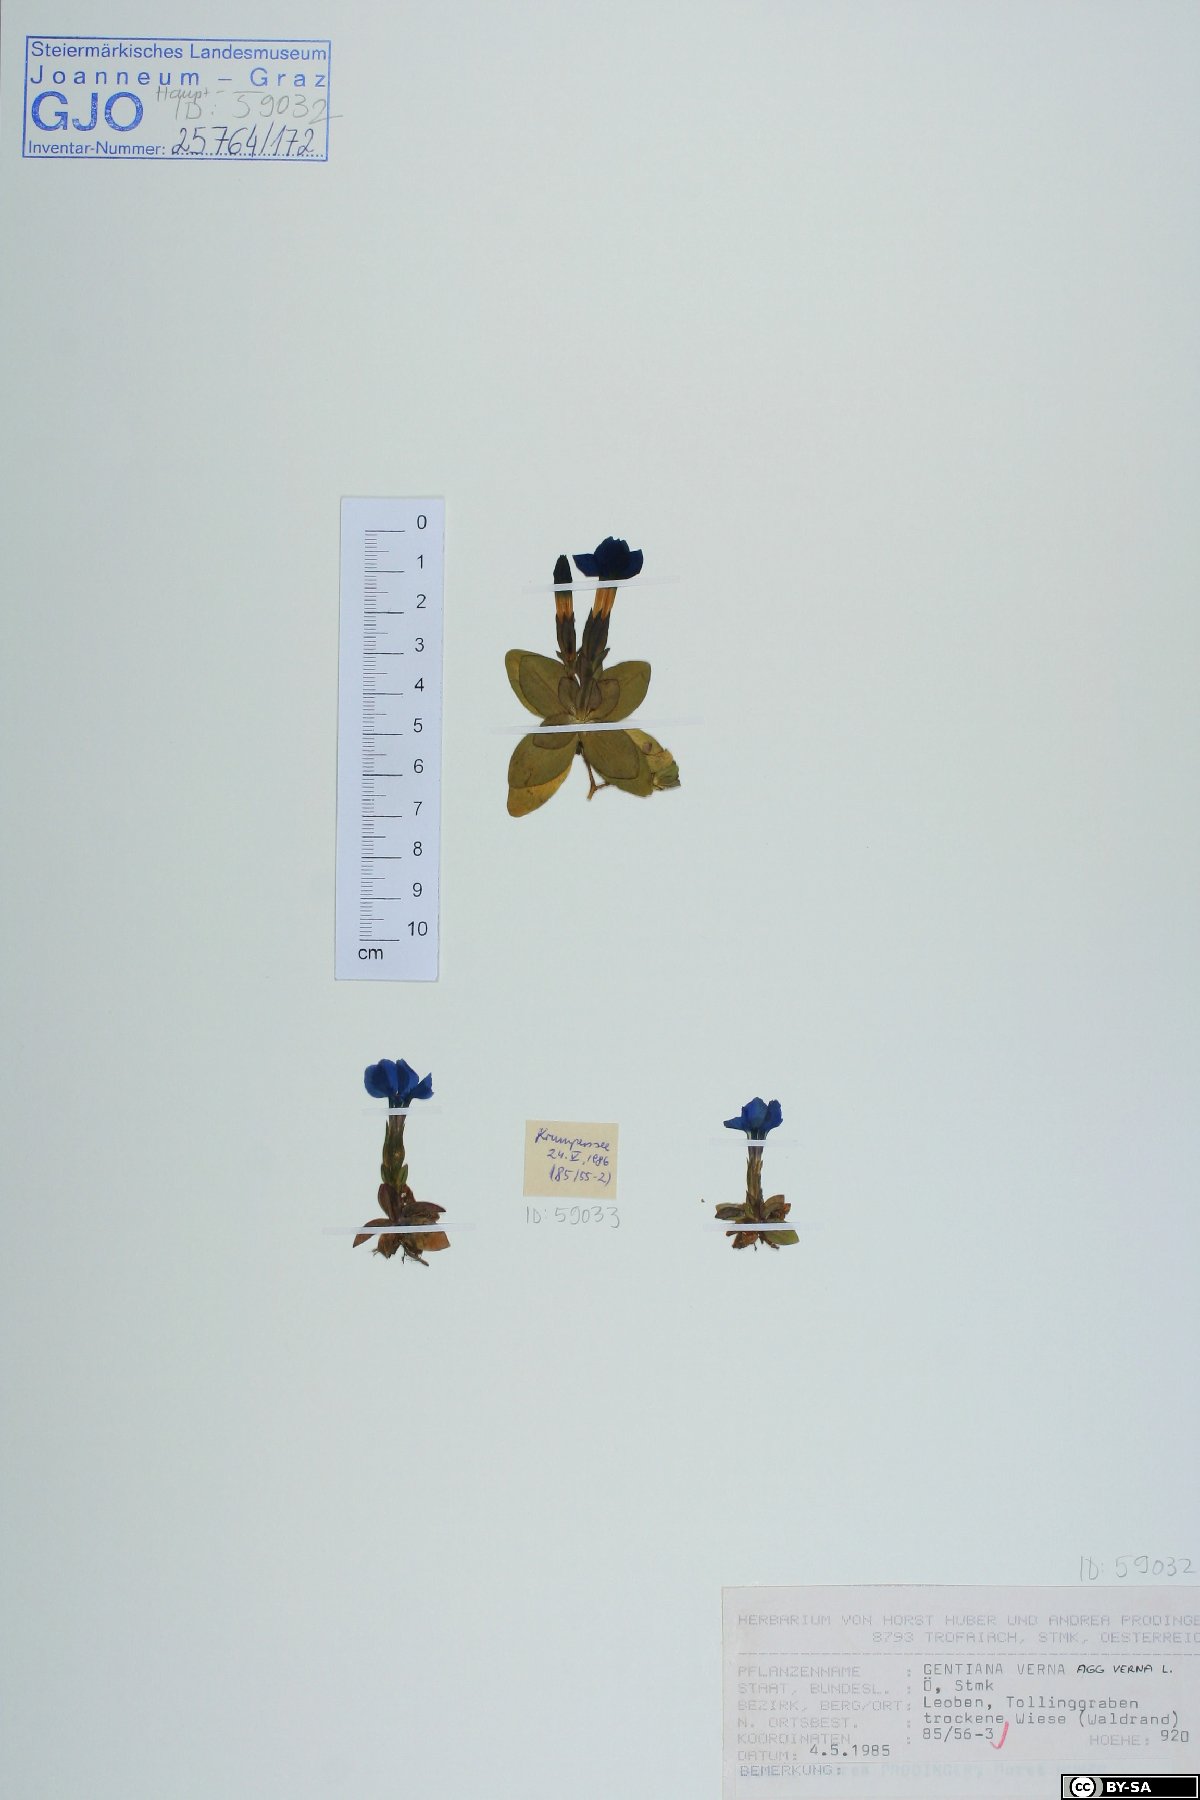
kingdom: Plantae
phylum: Tracheophyta
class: Magnoliopsida
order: Gentianales
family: Gentianaceae
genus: Gentiana
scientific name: Gentiana verna
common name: Spring gentian
